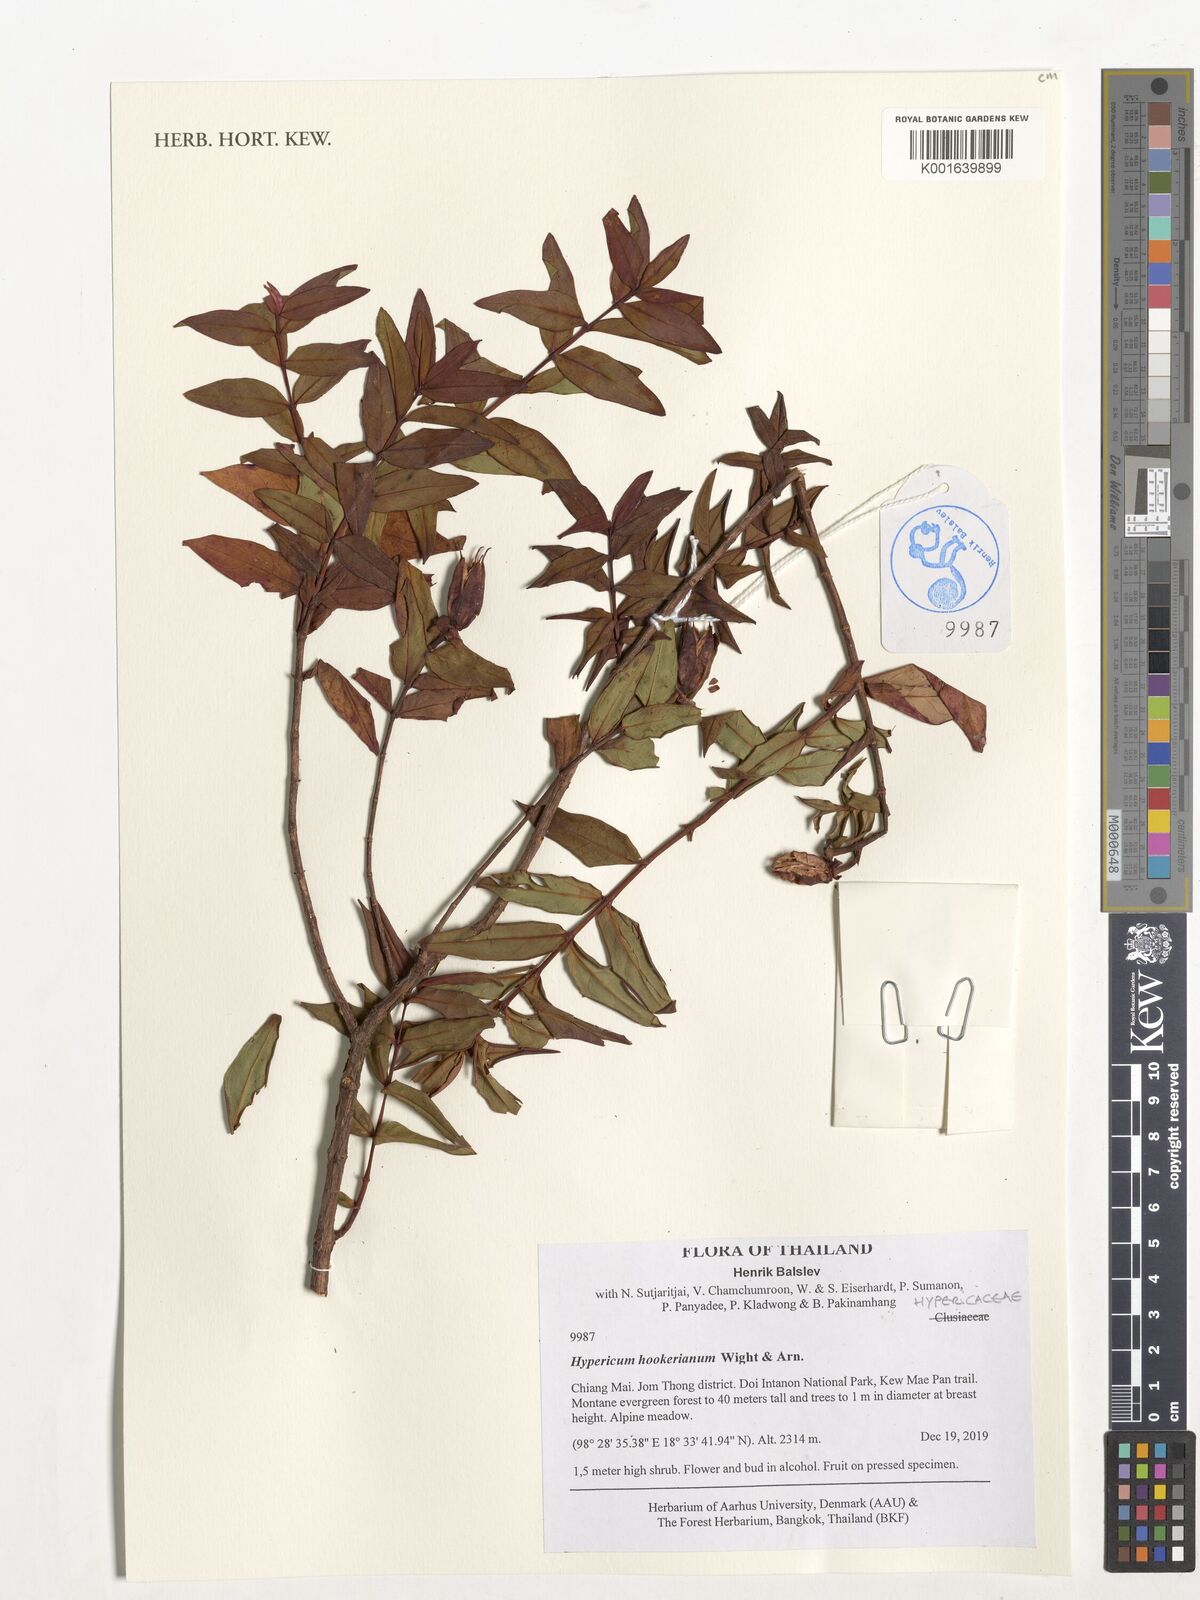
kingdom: Plantae
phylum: Tracheophyta
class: Magnoliopsida
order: Malpighiales
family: Hypericaceae
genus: Hypericum
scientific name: Hypericum hookerianum
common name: Hooker's st. johnswort
